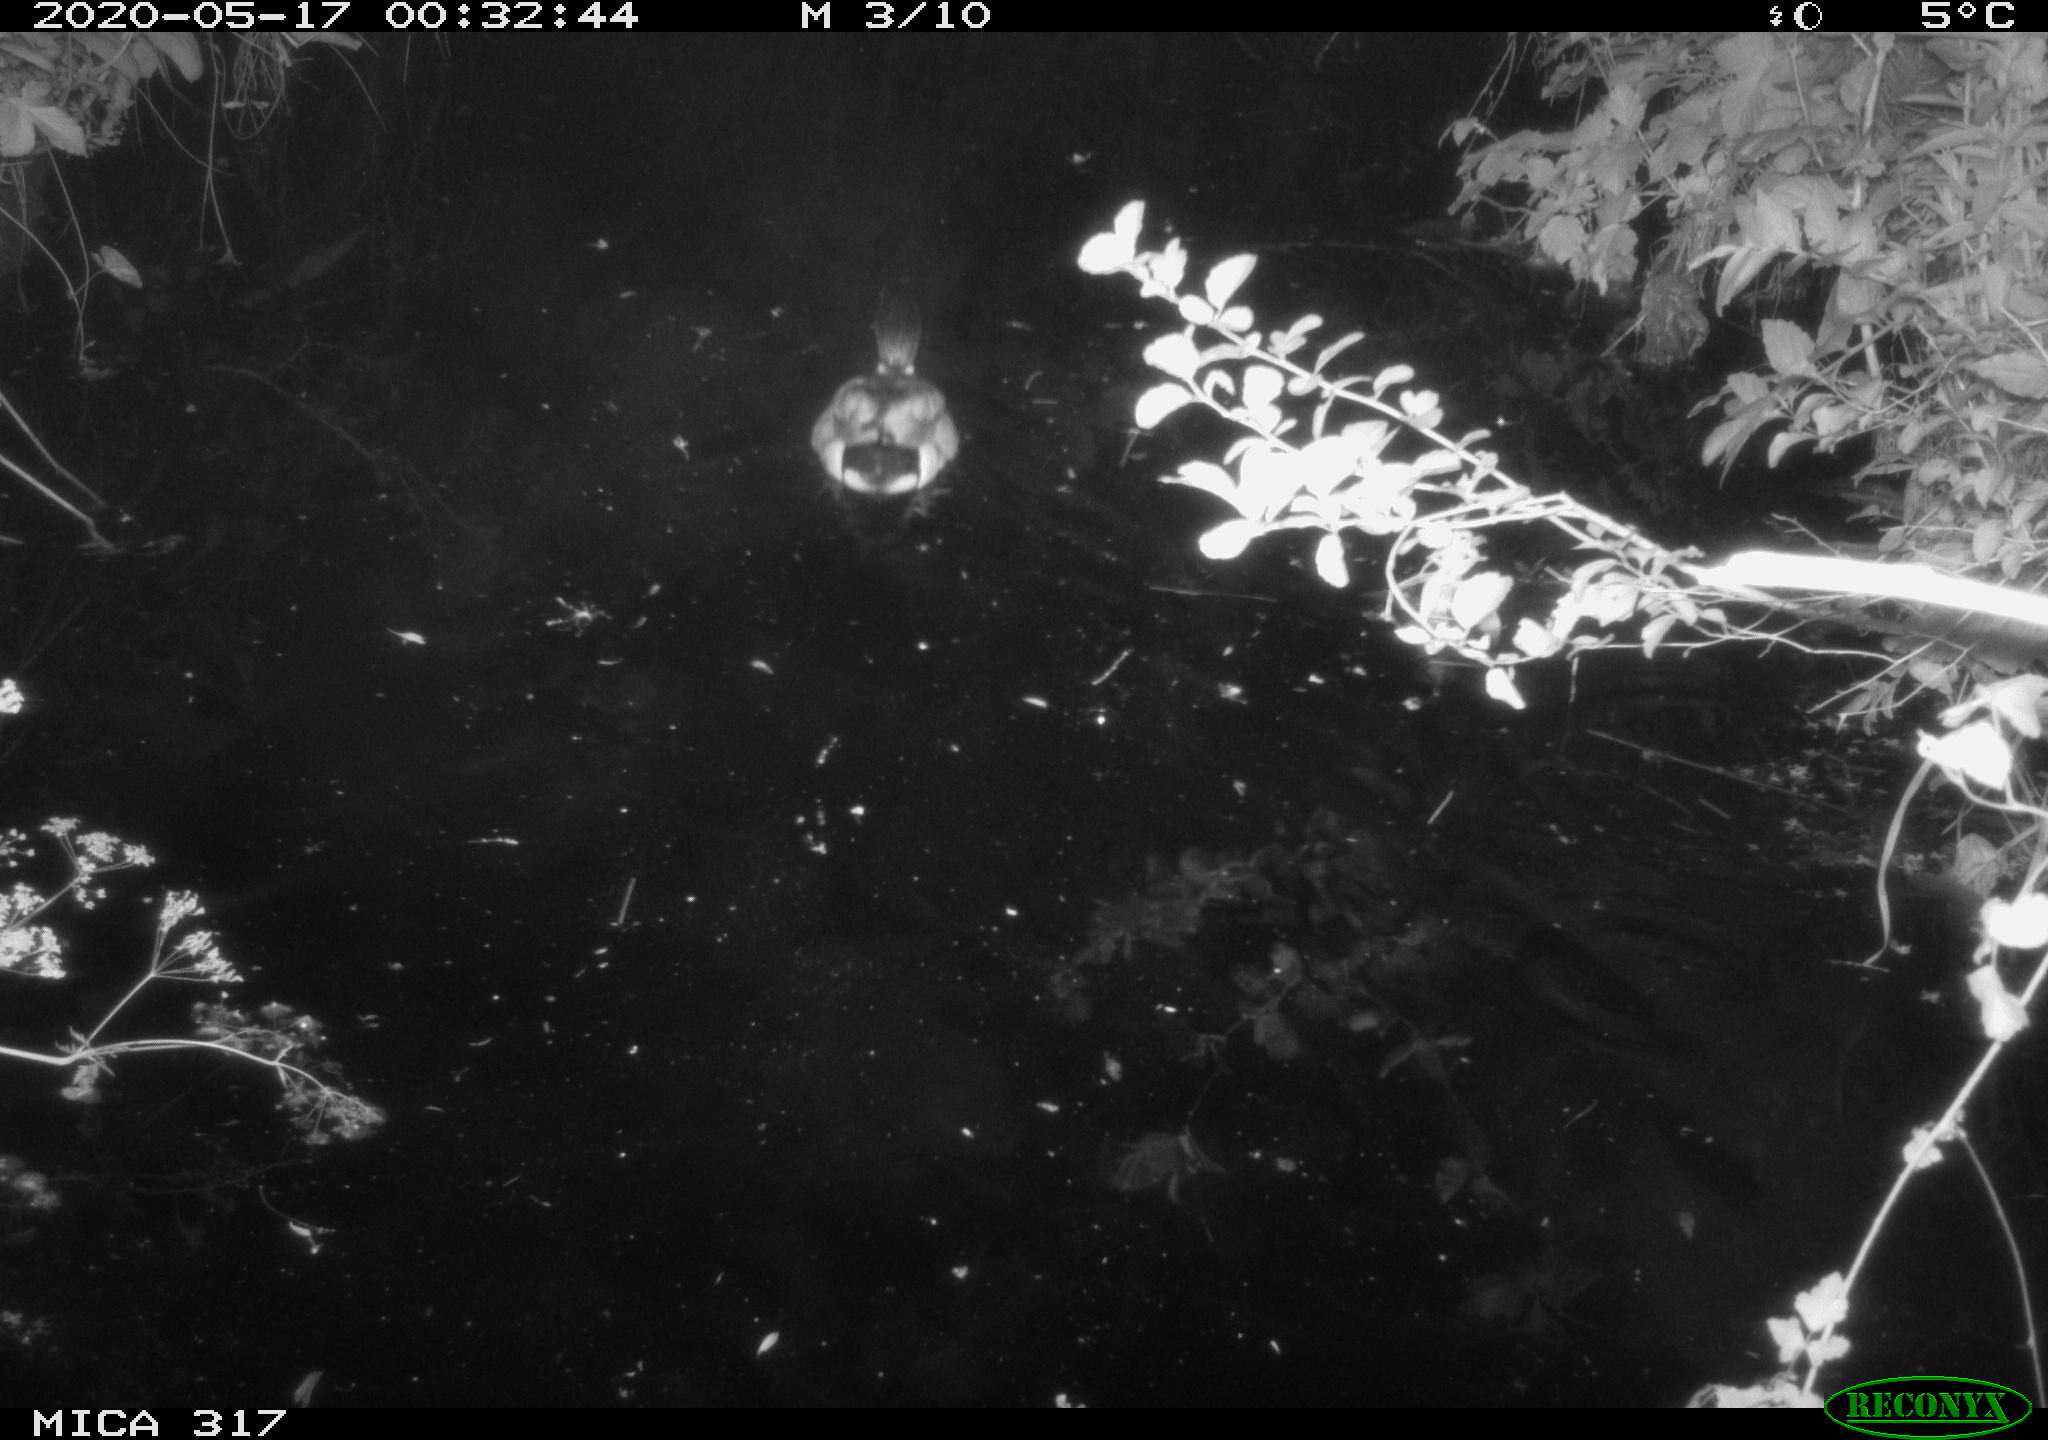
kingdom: Animalia
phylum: Chordata
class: Aves
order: Anseriformes
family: Anatidae
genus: Anas
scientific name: Anas platyrhynchos
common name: Mallard
